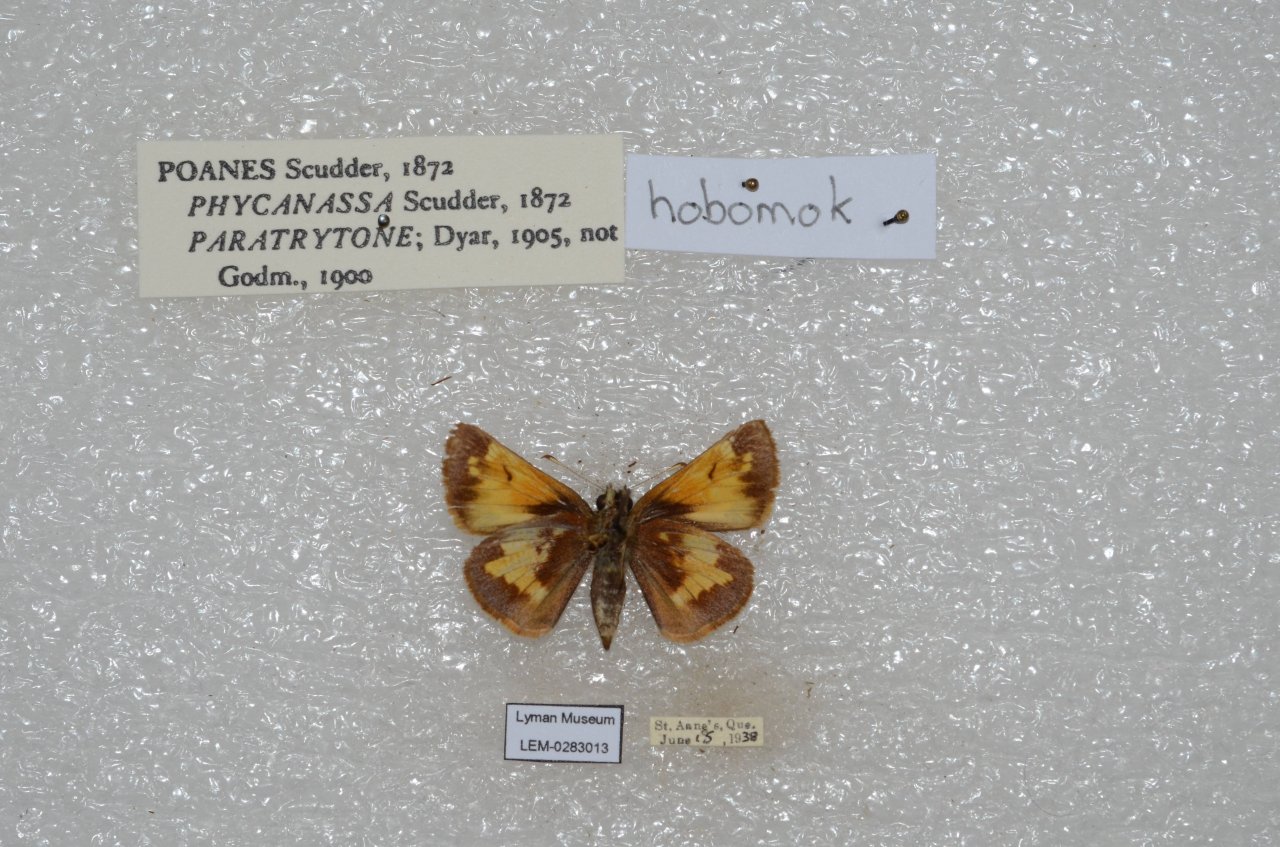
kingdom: Animalia
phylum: Arthropoda
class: Insecta
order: Lepidoptera
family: Hesperiidae
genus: Lon
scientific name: Lon hobomok
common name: Hobomok Skipper
